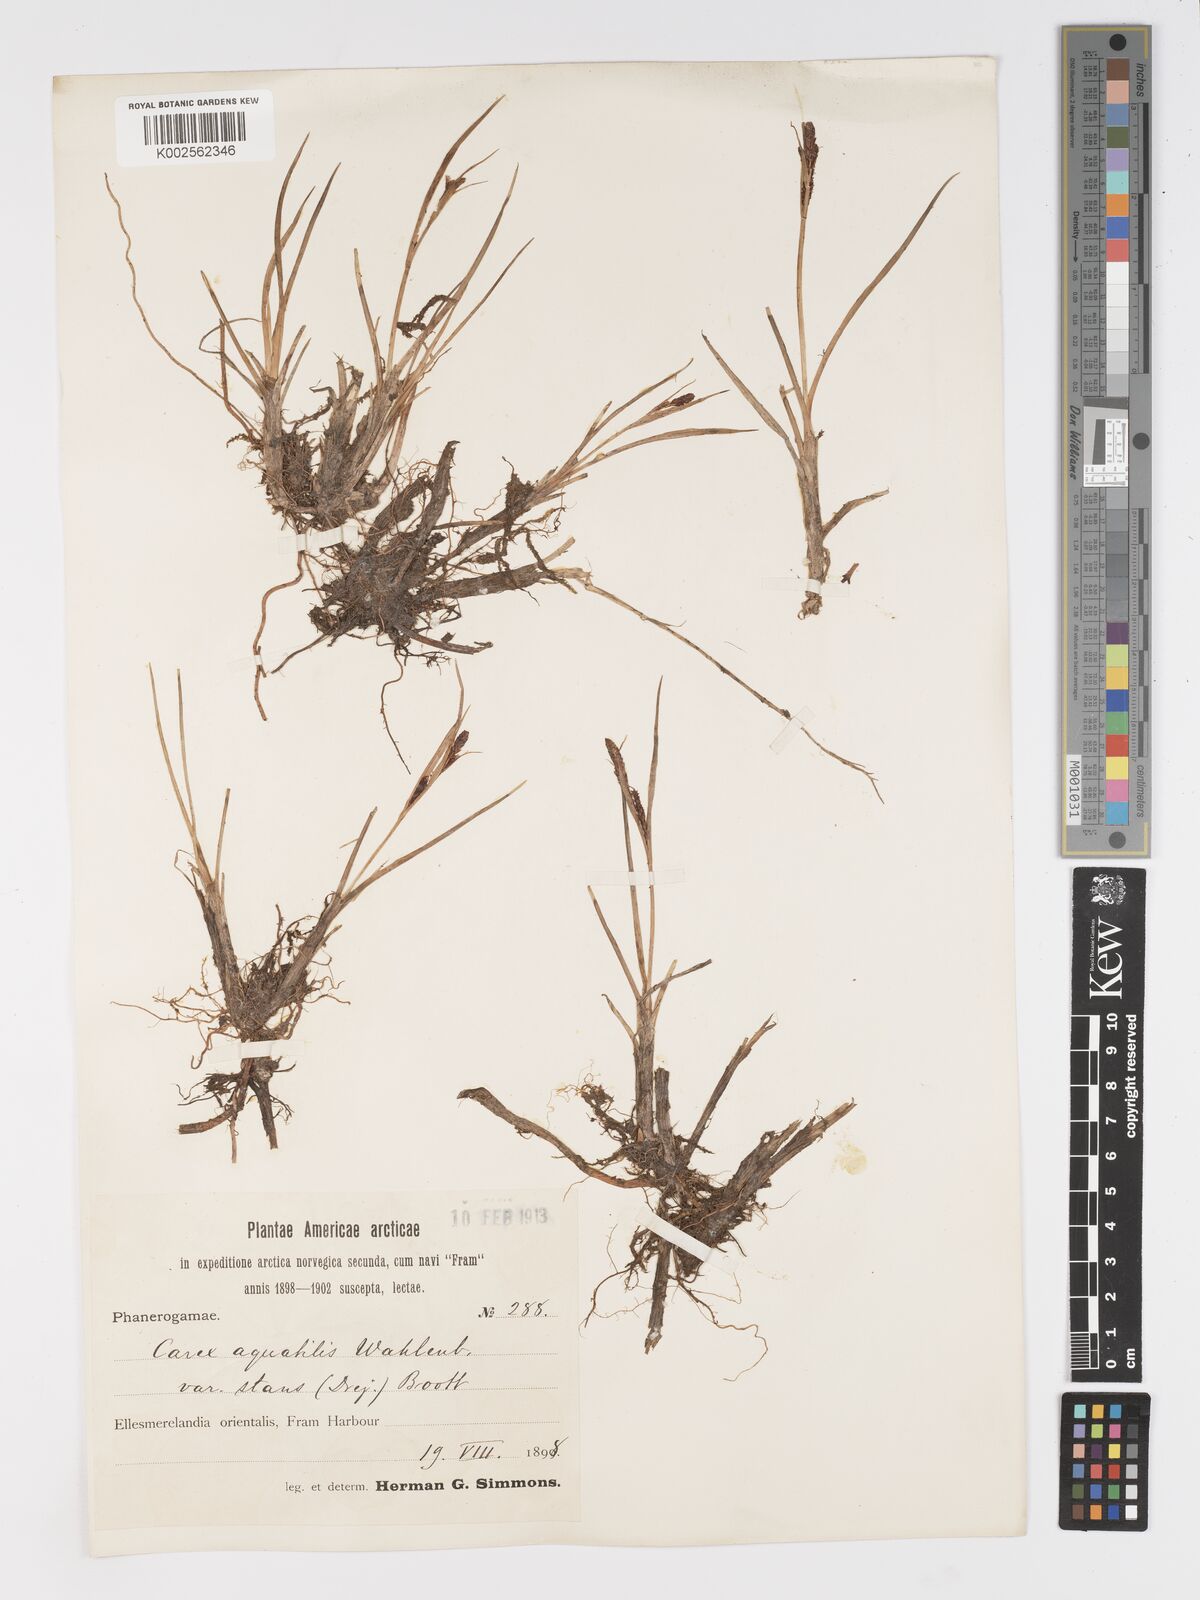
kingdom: Plantae
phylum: Tracheophyta
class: Liliopsida
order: Poales
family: Cyperaceae
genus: Carex
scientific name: Carex aquatilis
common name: Water sedge
